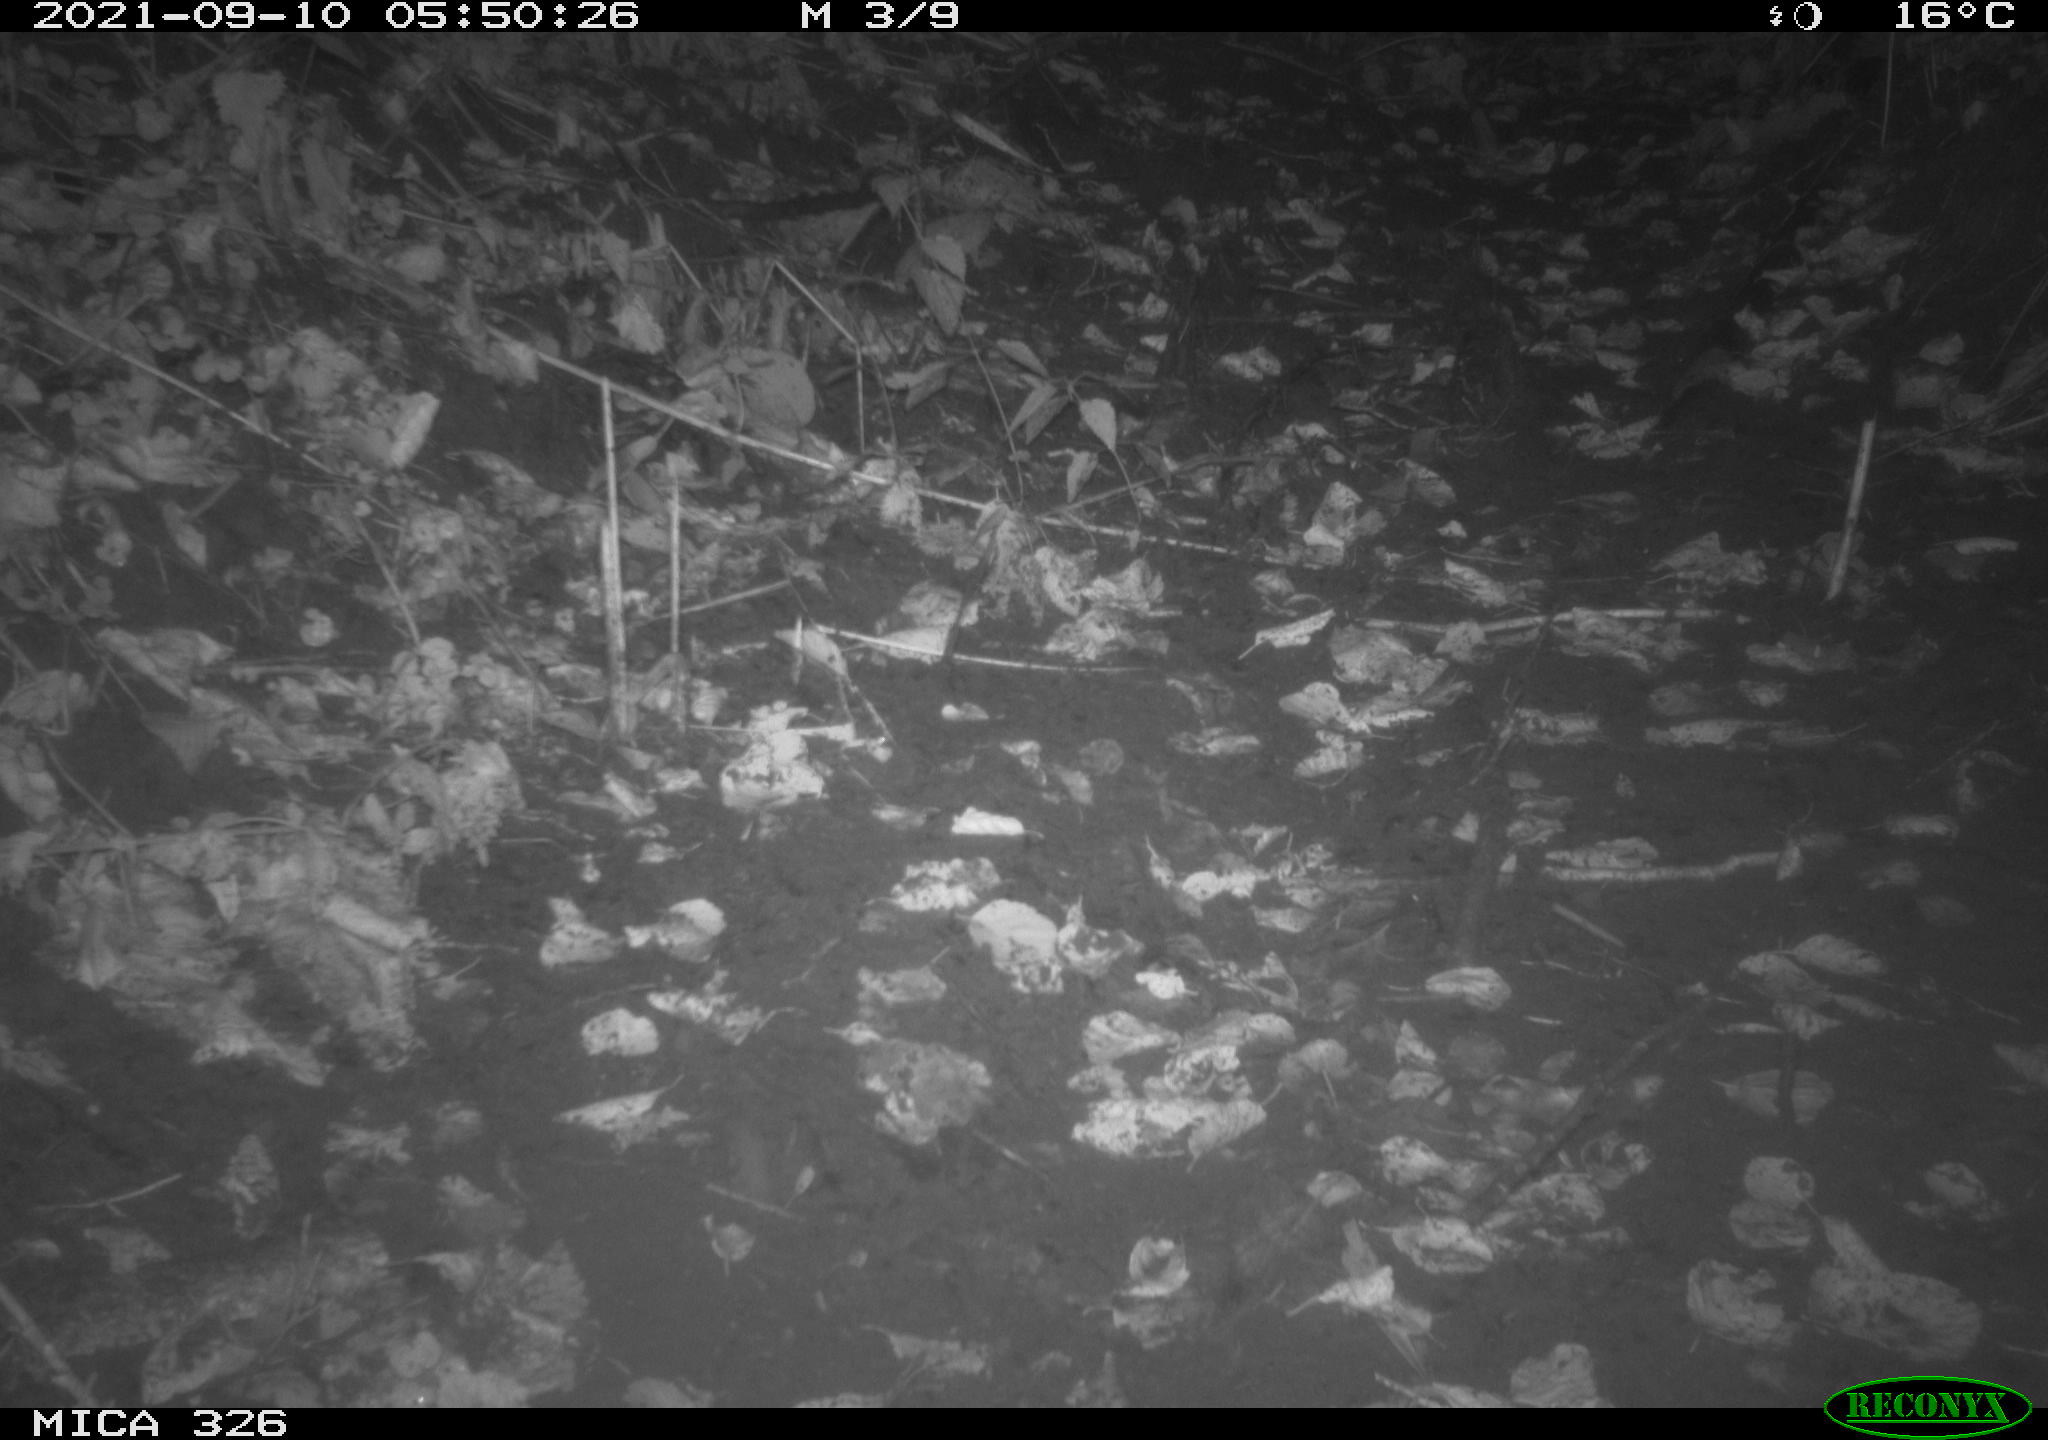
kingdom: Animalia
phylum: Chordata
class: Mammalia
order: Rodentia
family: Muridae
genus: Rattus
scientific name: Rattus norvegicus
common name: Brown rat
